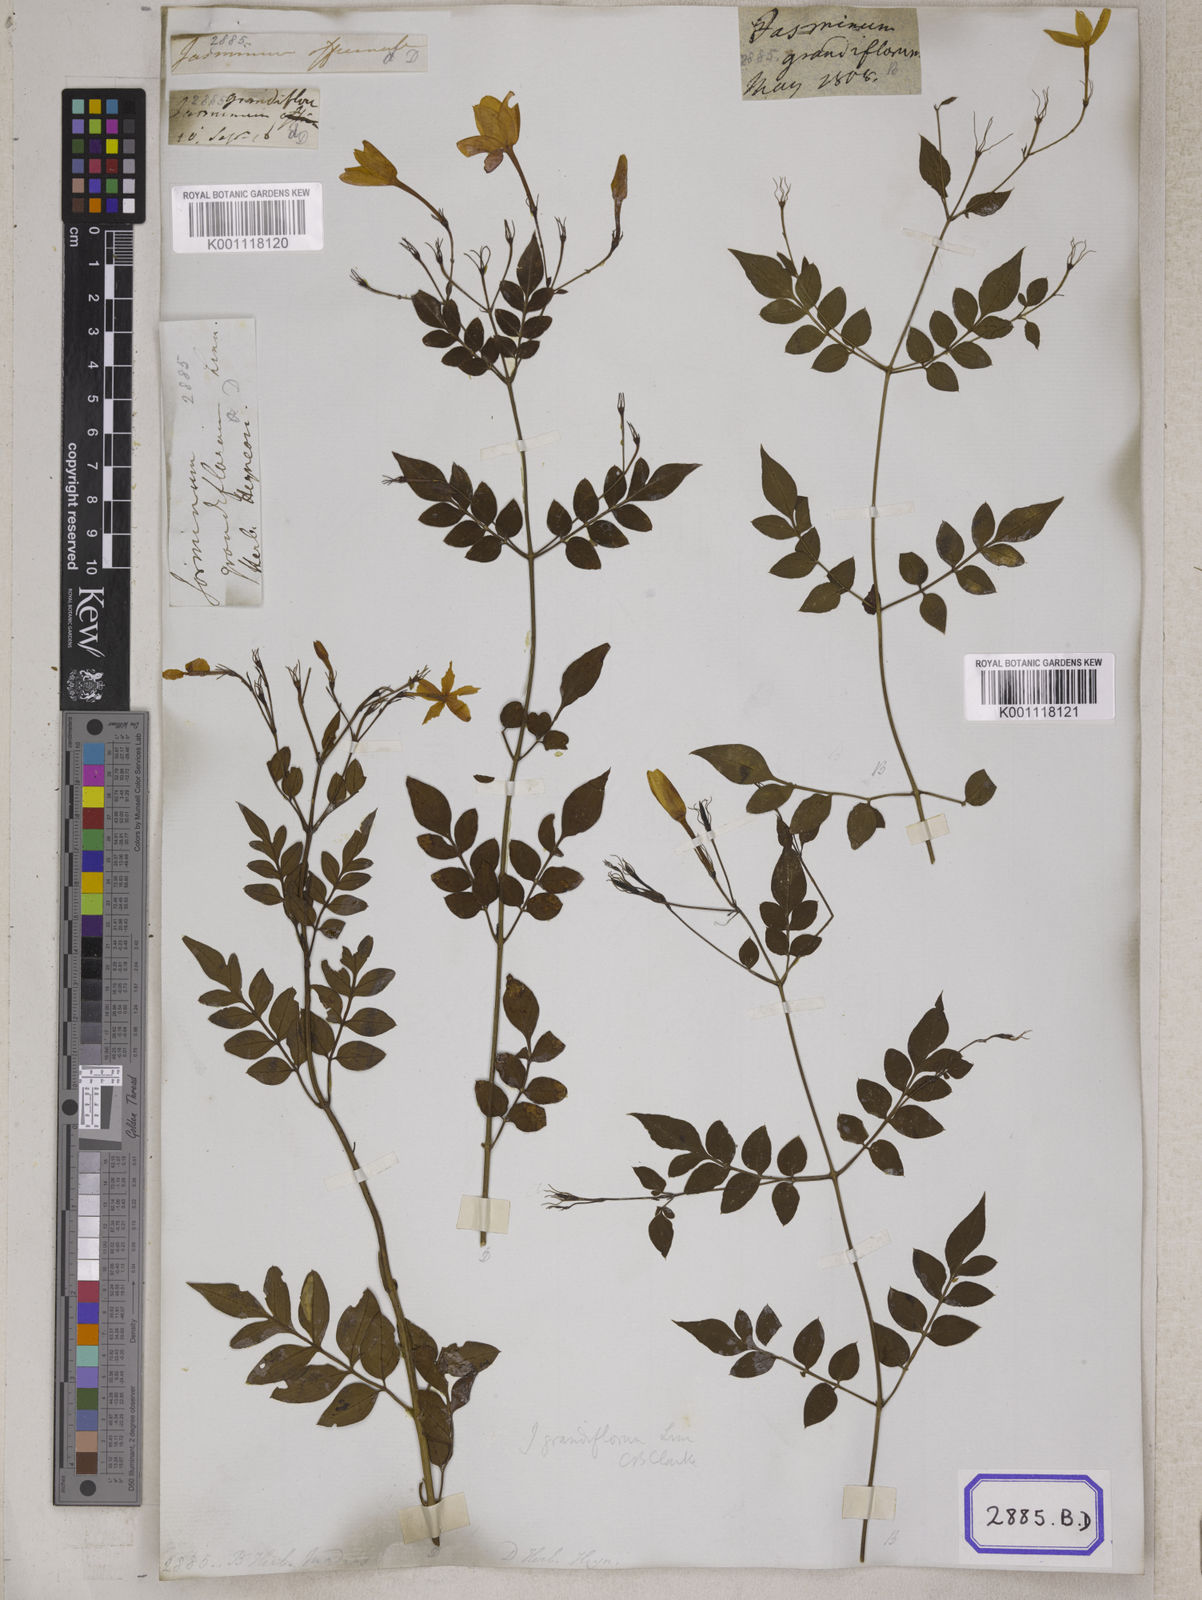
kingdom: Plantae
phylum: Tracheophyta
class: Magnoliopsida
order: Lamiales
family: Oleaceae
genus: Jasminum
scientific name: Jasminum grandiflorum
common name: Catalonian jasmine
